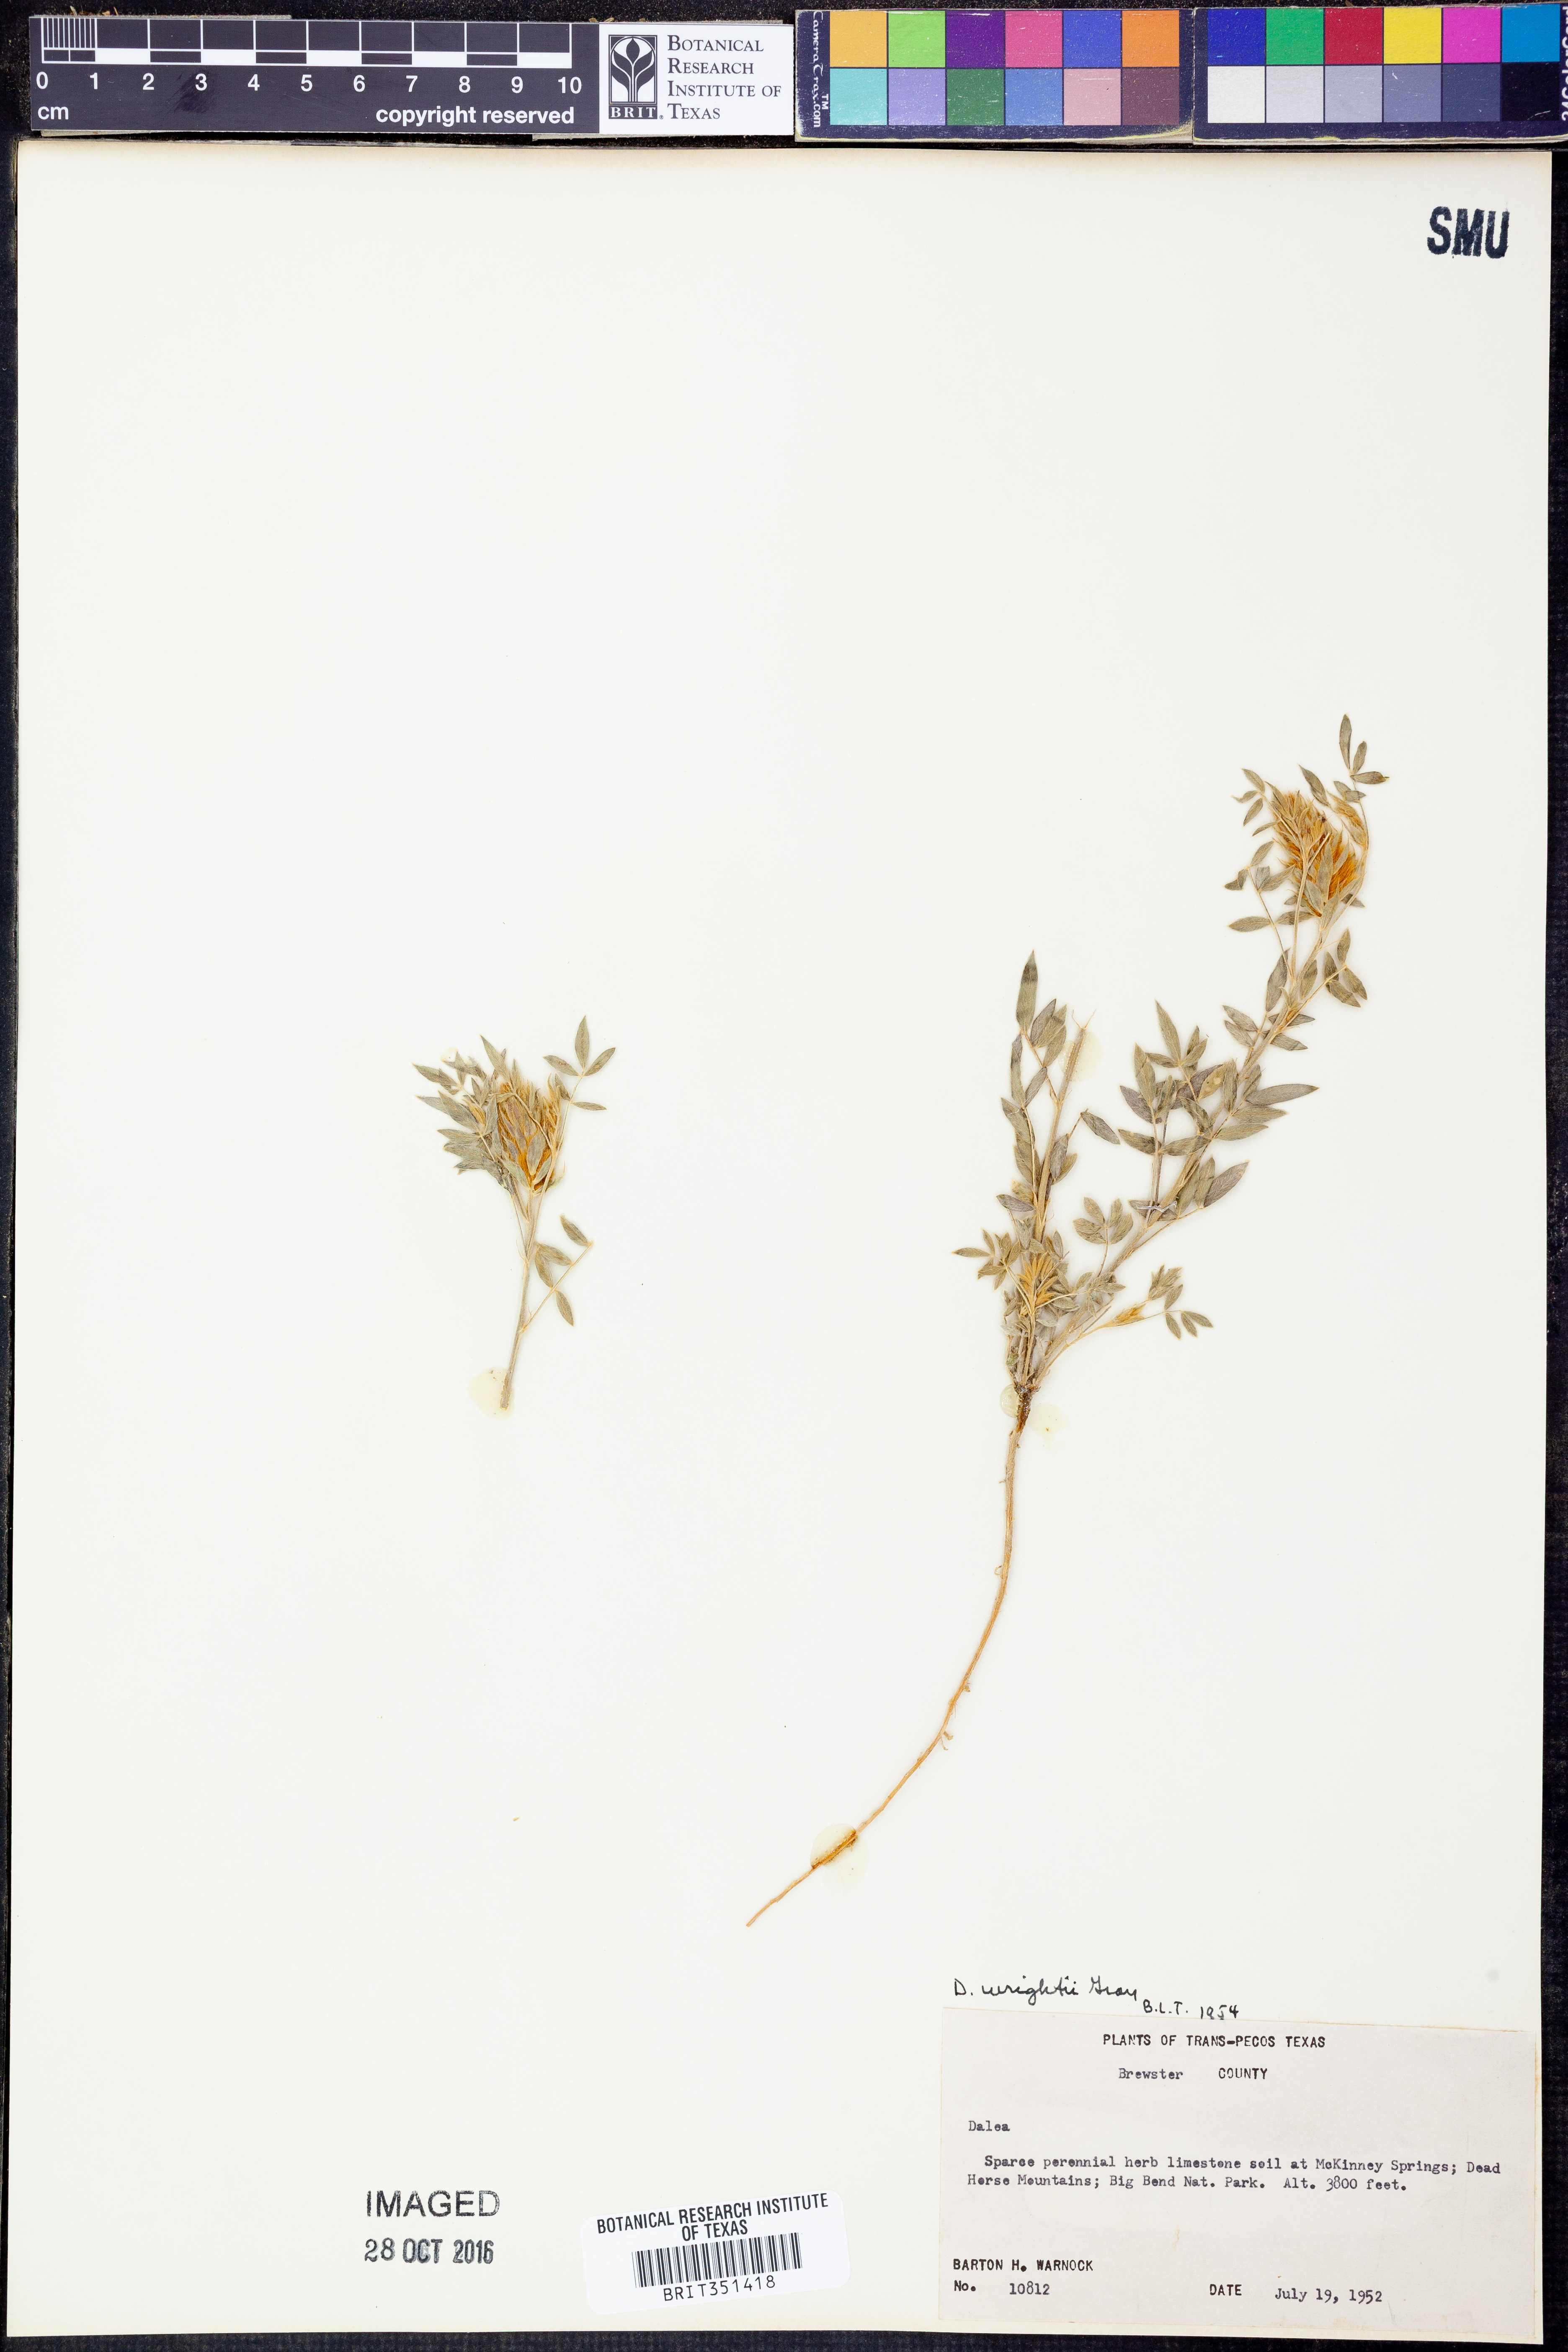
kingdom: Plantae
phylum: Tracheophyta
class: Magnoliopsida
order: Fabales
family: Fabaceae
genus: Dalea
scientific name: Dalea wrightii
